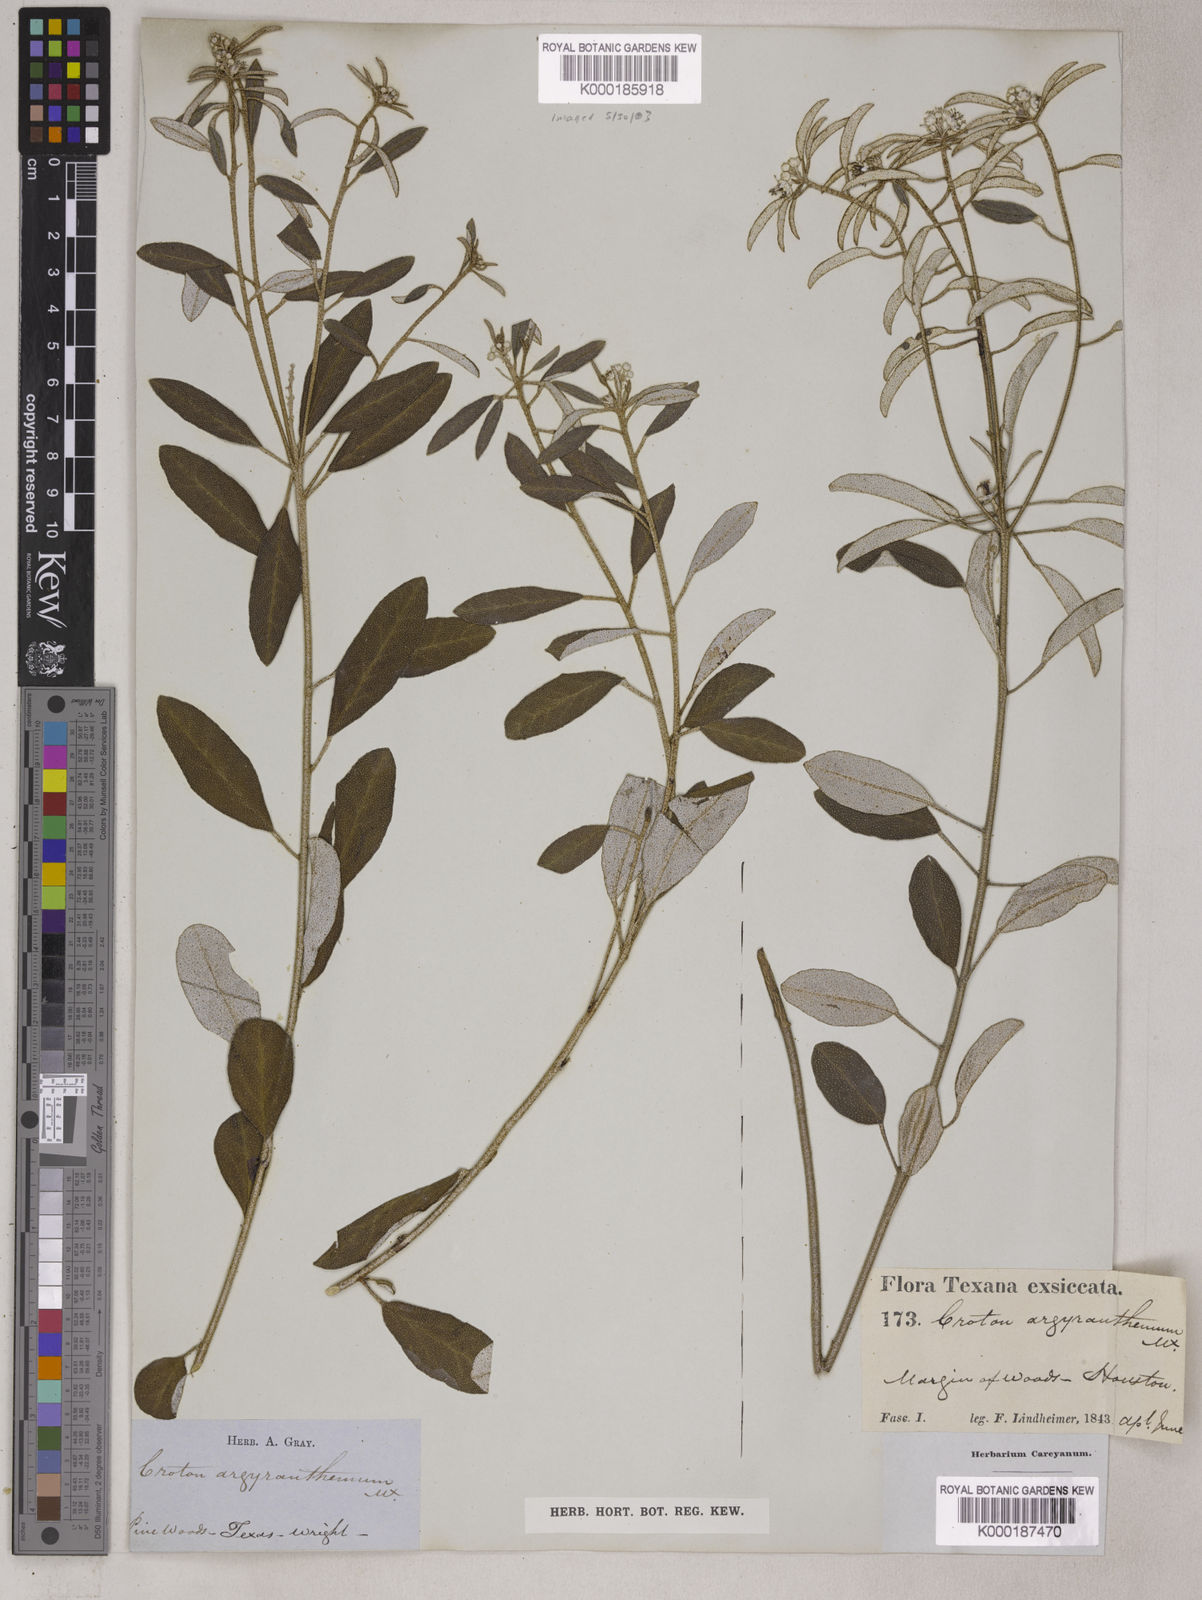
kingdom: Plantae
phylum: Tracheophyta
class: Magnoliopsida
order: Malpighiales
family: Euphorbiaceae
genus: Croton
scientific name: Croton argyranthemus
